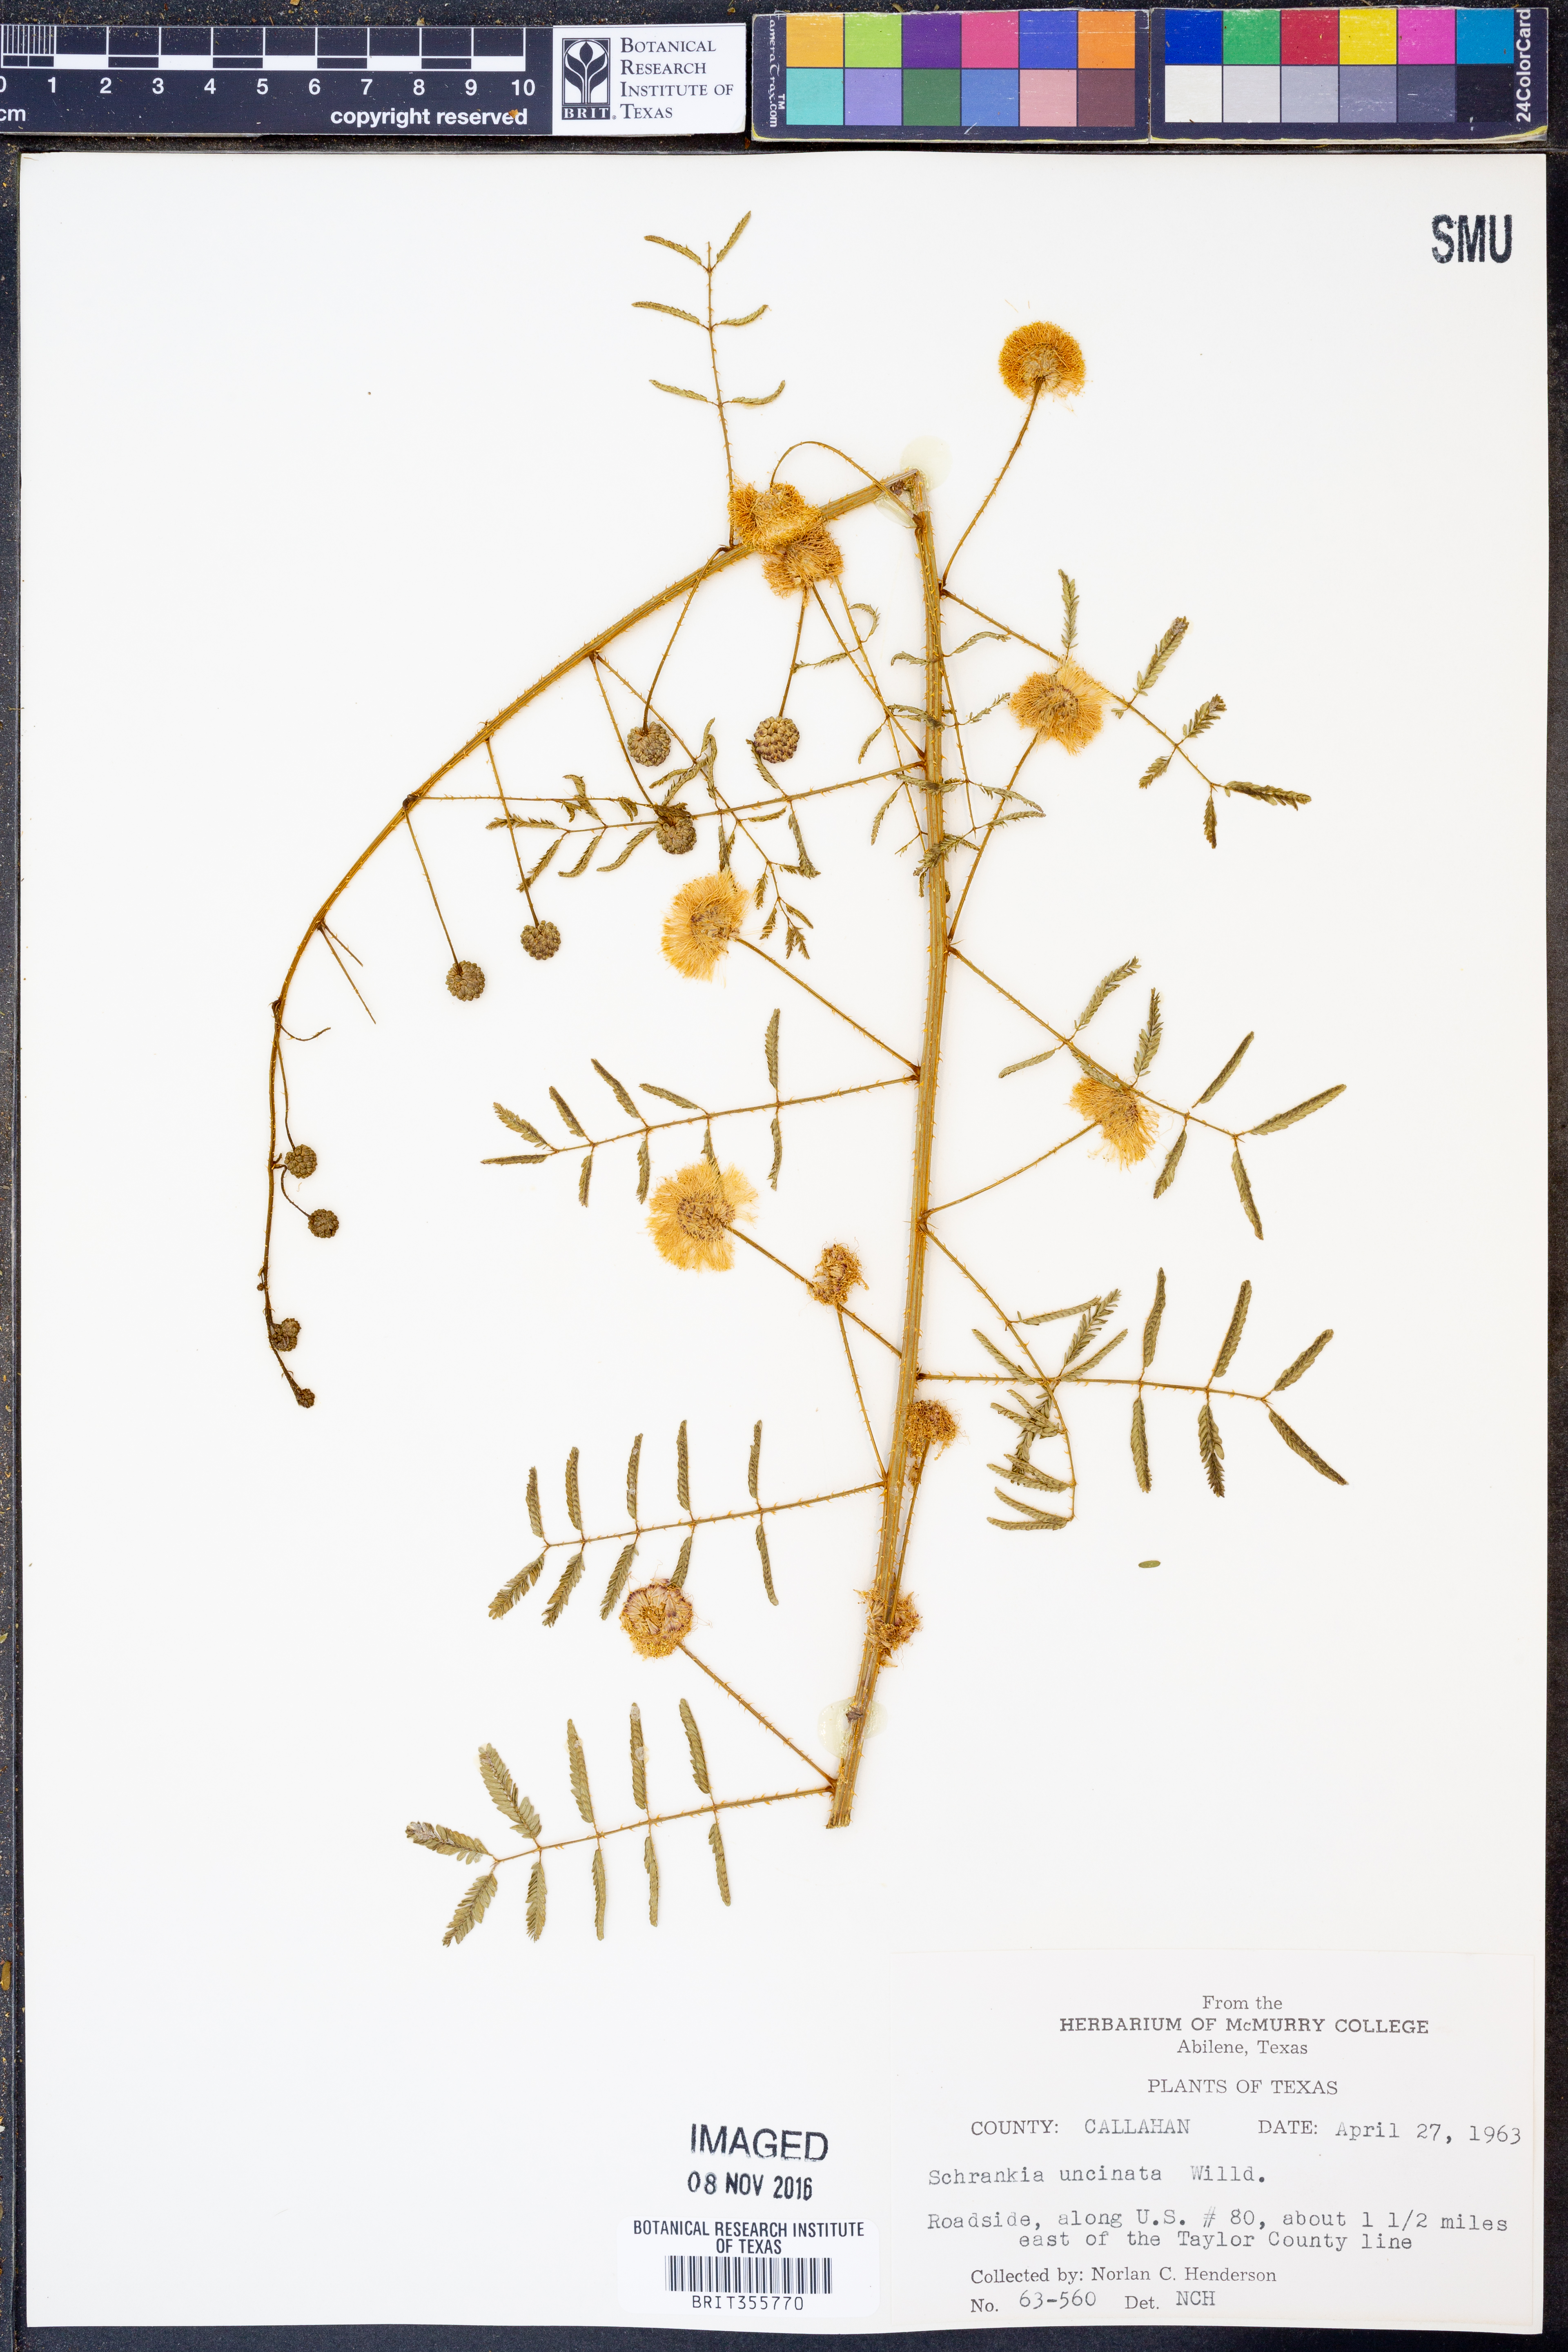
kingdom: Plantae
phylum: Tracheophyta
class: Magnoliopsida
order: Fabales
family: Fabaceae
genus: Mimosa
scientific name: Mimosa quadrivalvis
